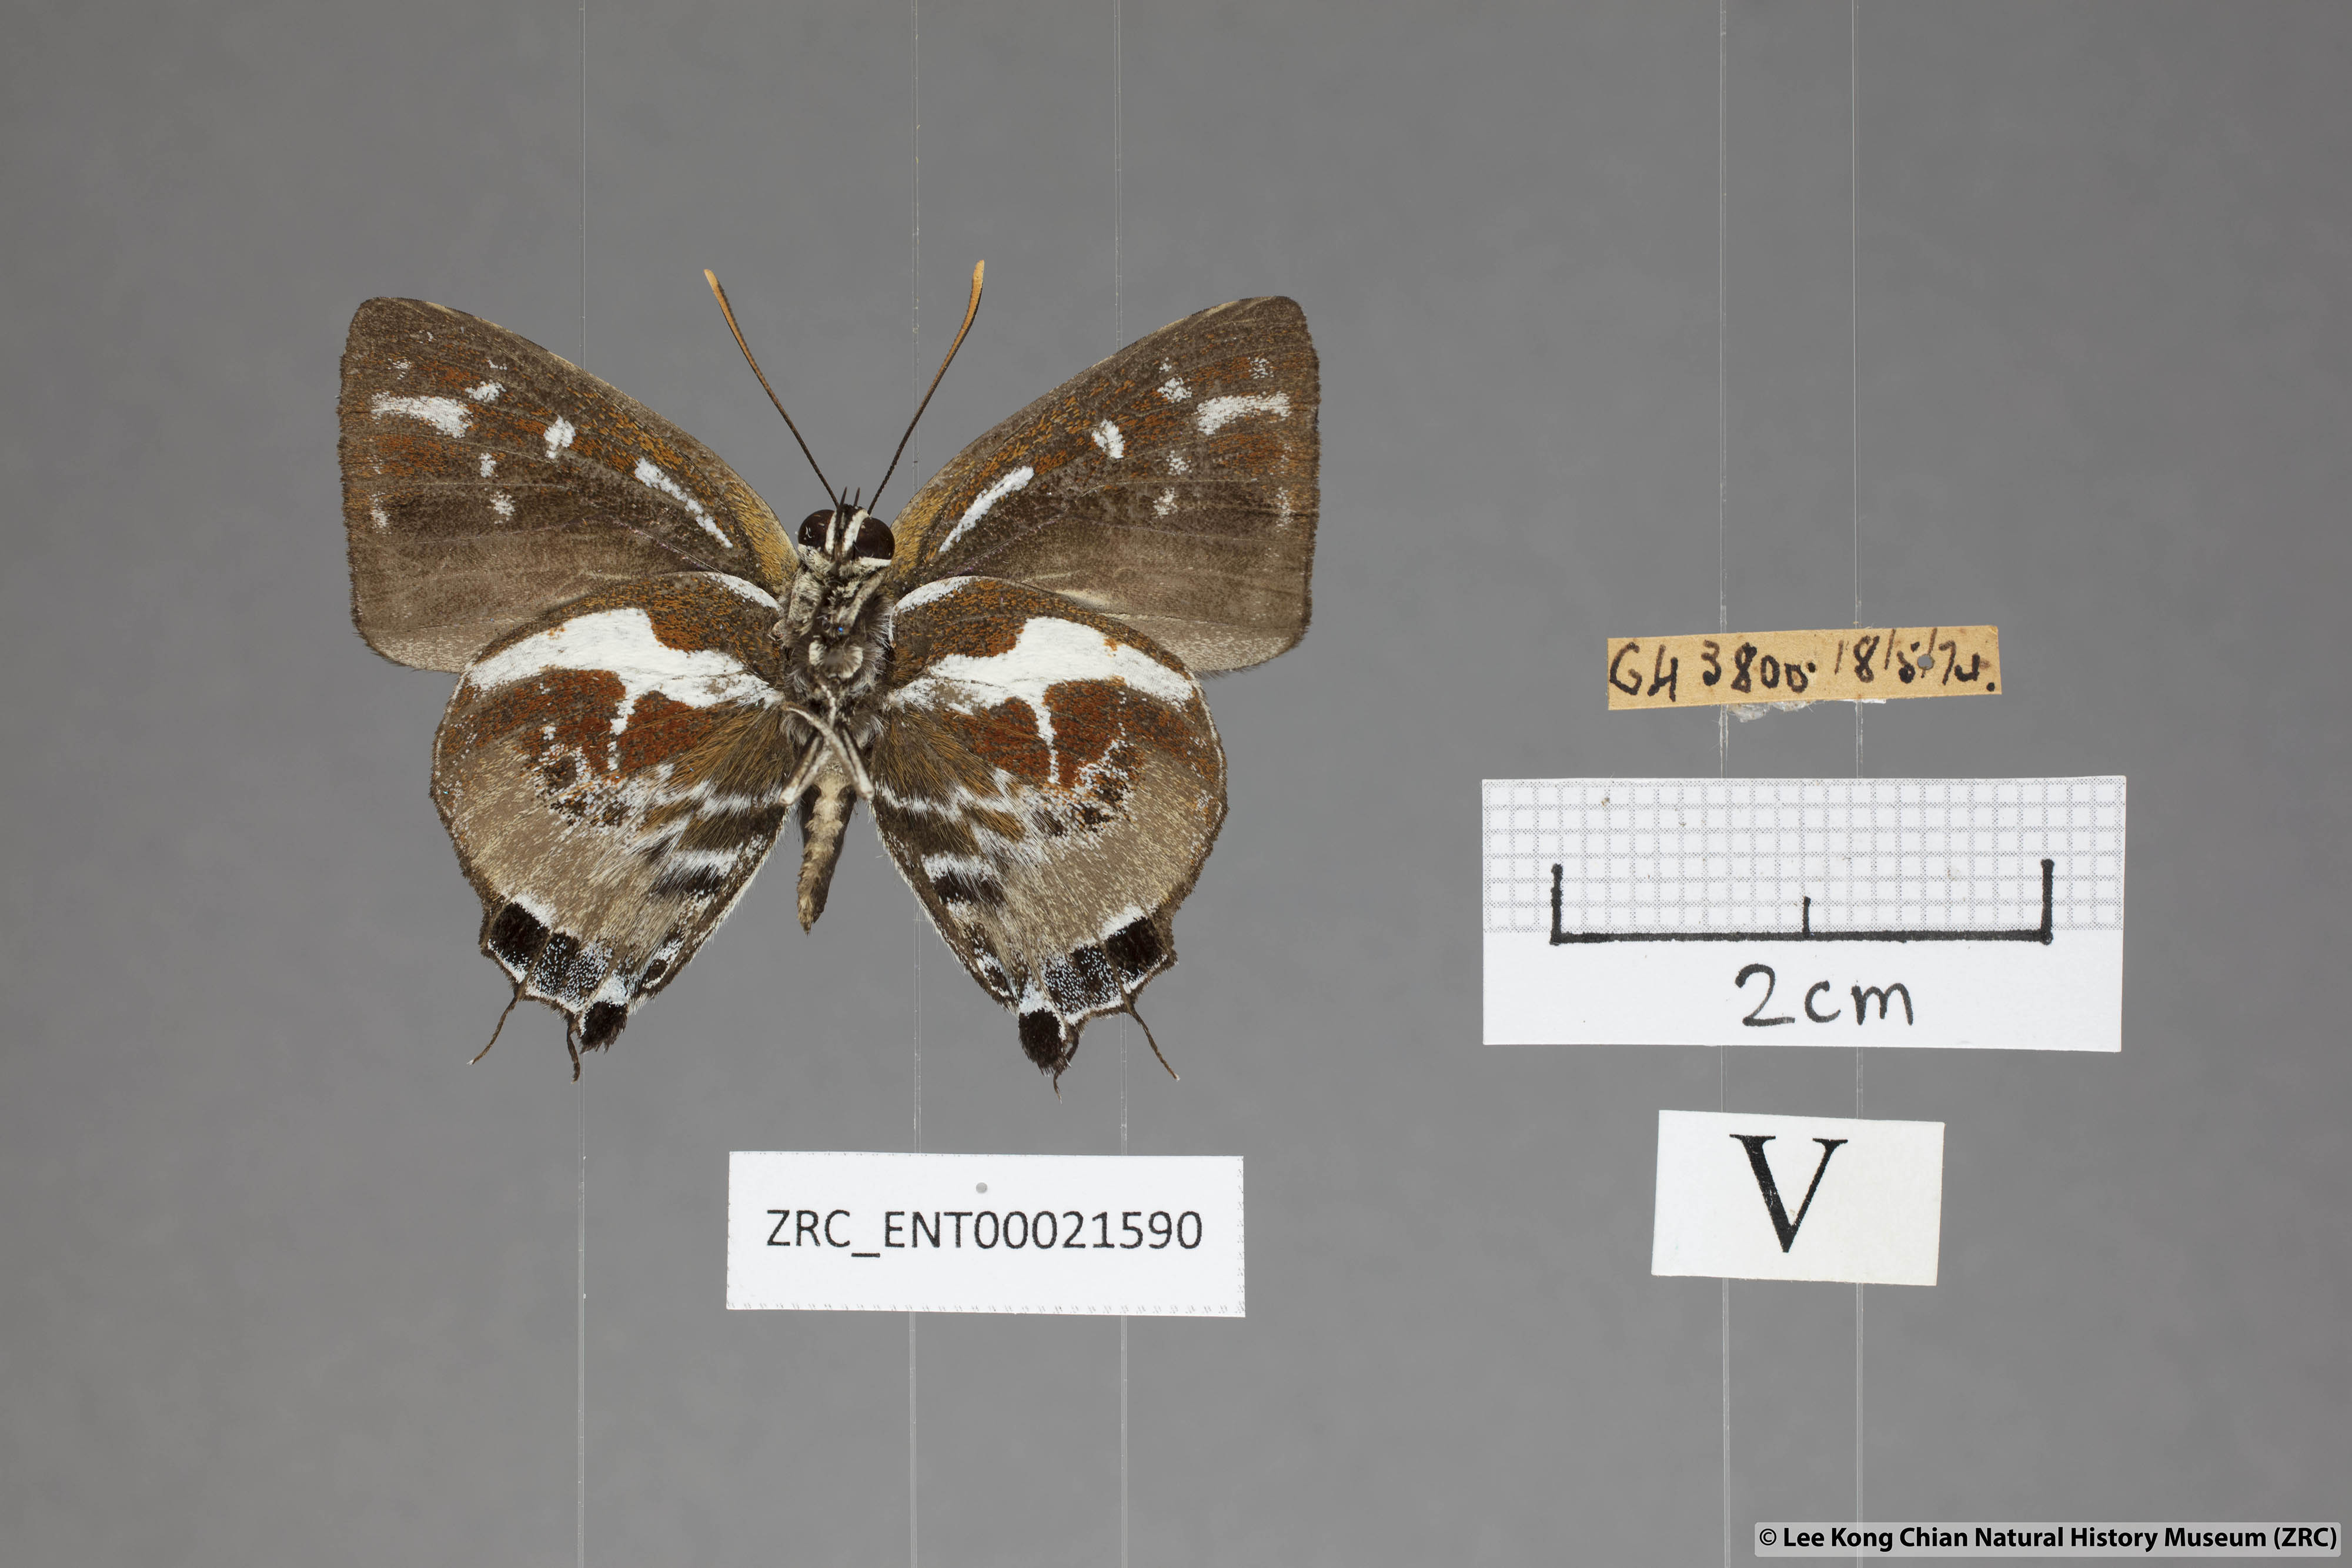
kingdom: Animalia
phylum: Arthropoda
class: Insecta
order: Lepidoptera
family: Lycaenidae
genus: Iraota
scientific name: Iraota rochana
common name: Scarce silverstreak blue
